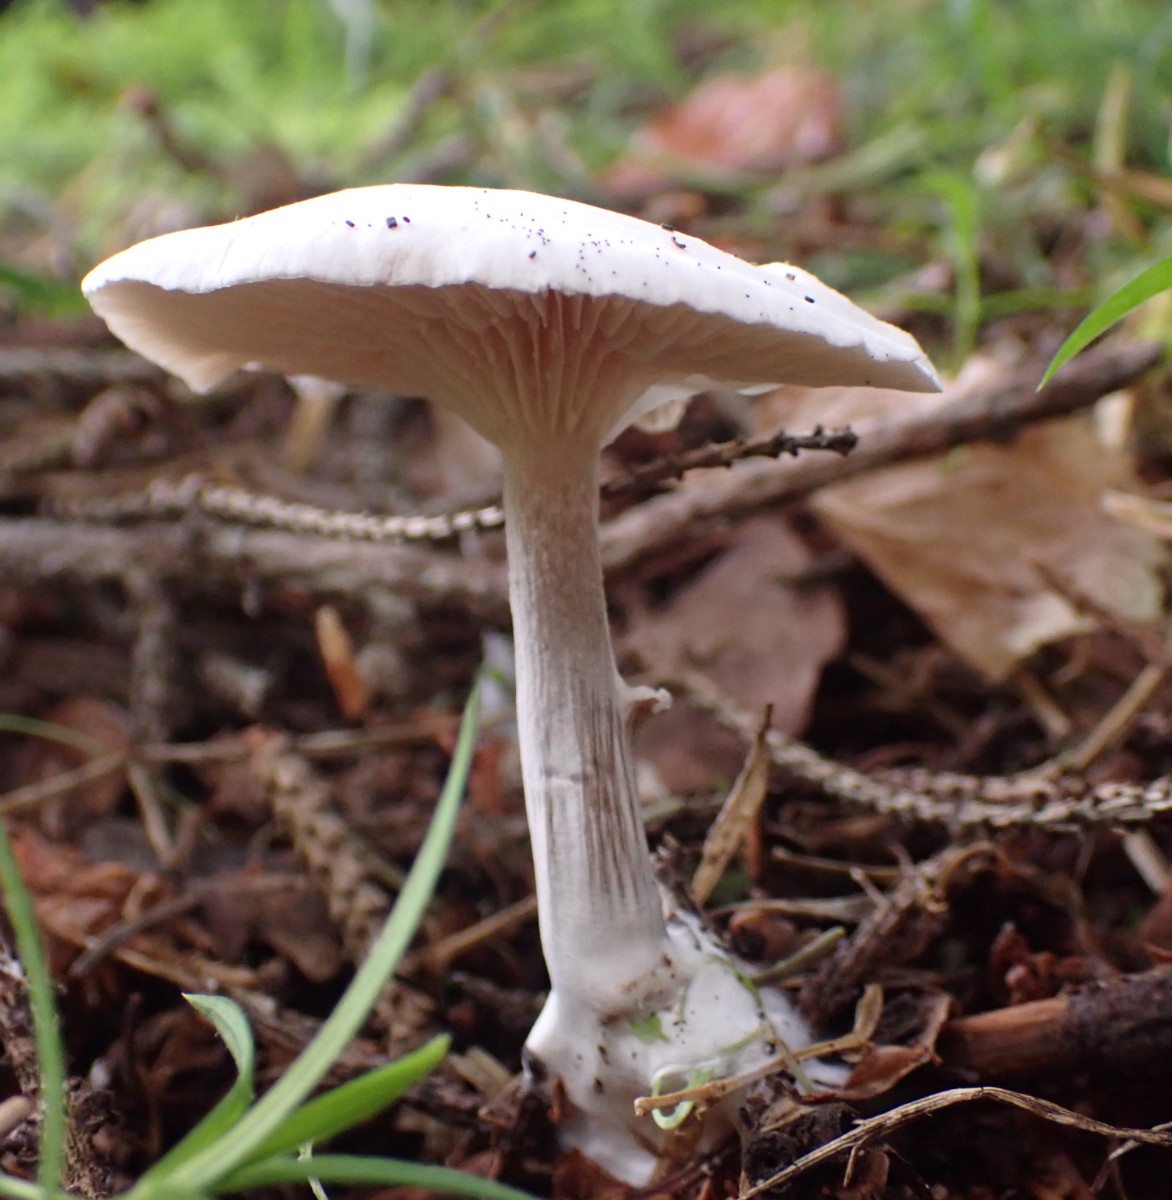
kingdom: Fungi
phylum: Basidiomycota
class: Agaricomycetes
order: Agaricales
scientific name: Agaricales
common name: champignonordenen
